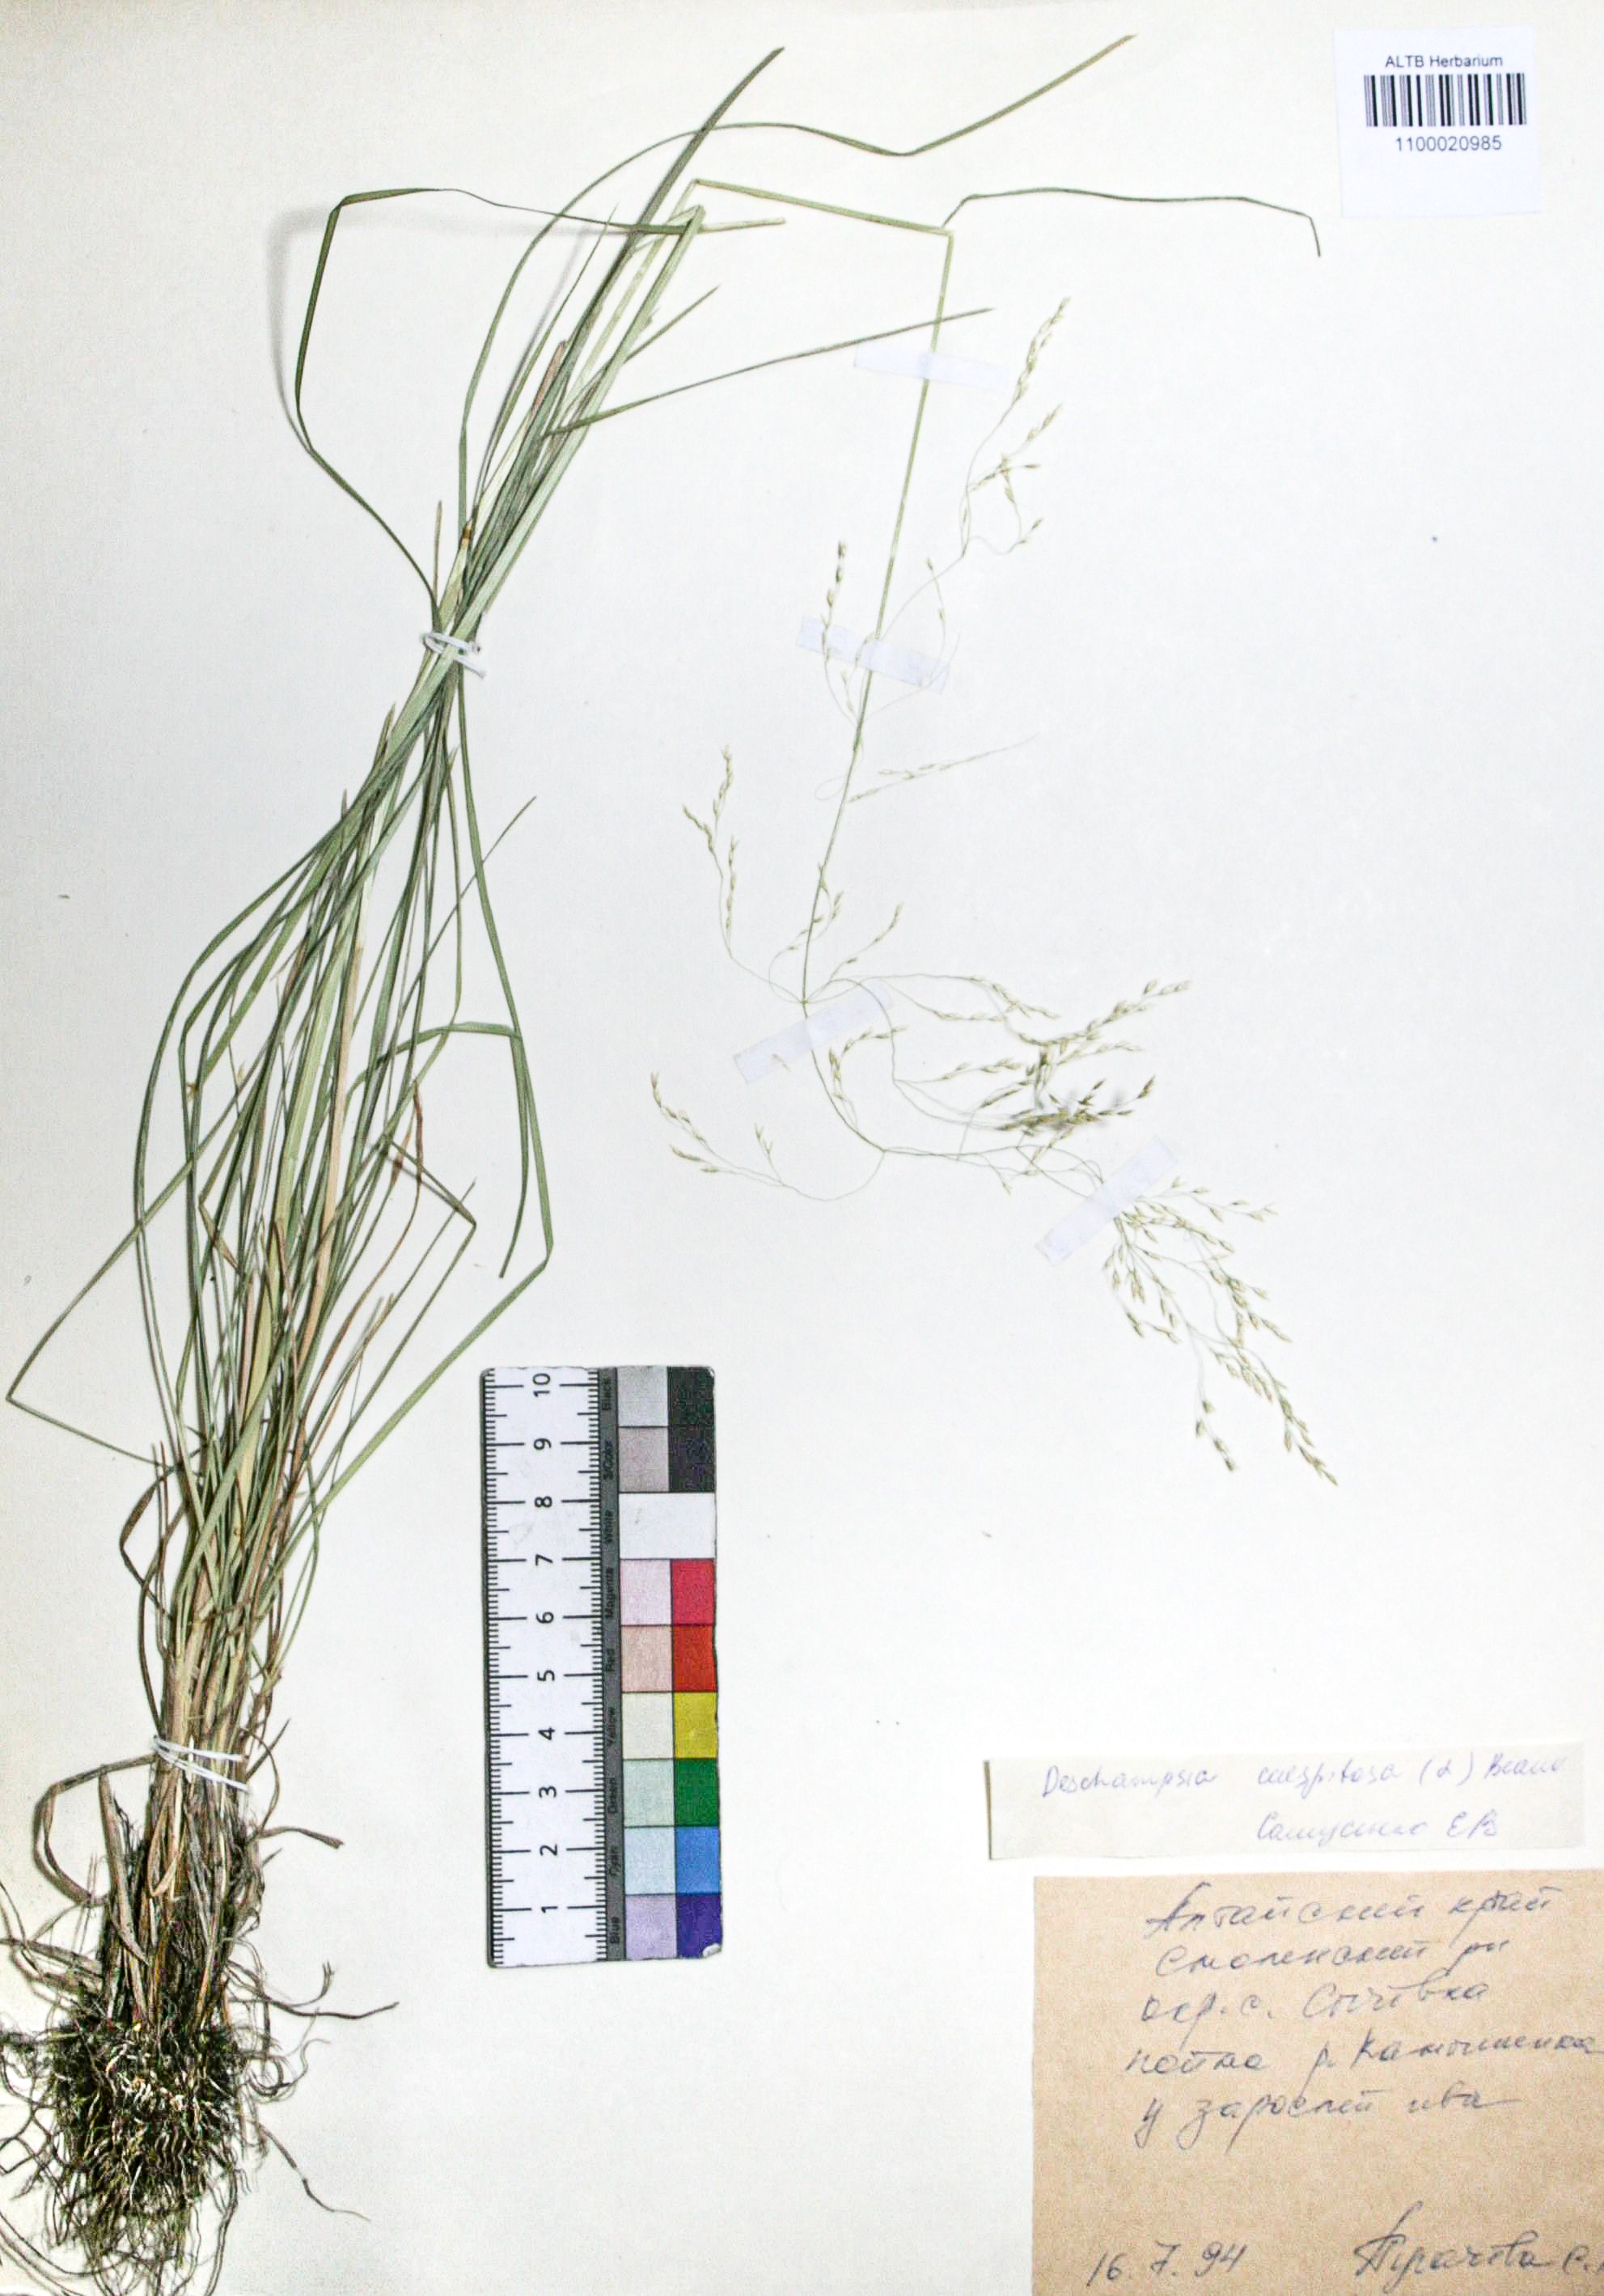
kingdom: Plantae
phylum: Tracheophyta
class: Liliopsida
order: Poales
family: Poaceae
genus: Deschampsia
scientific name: Deschampsia cespitosa
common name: Tufted hair-grass
